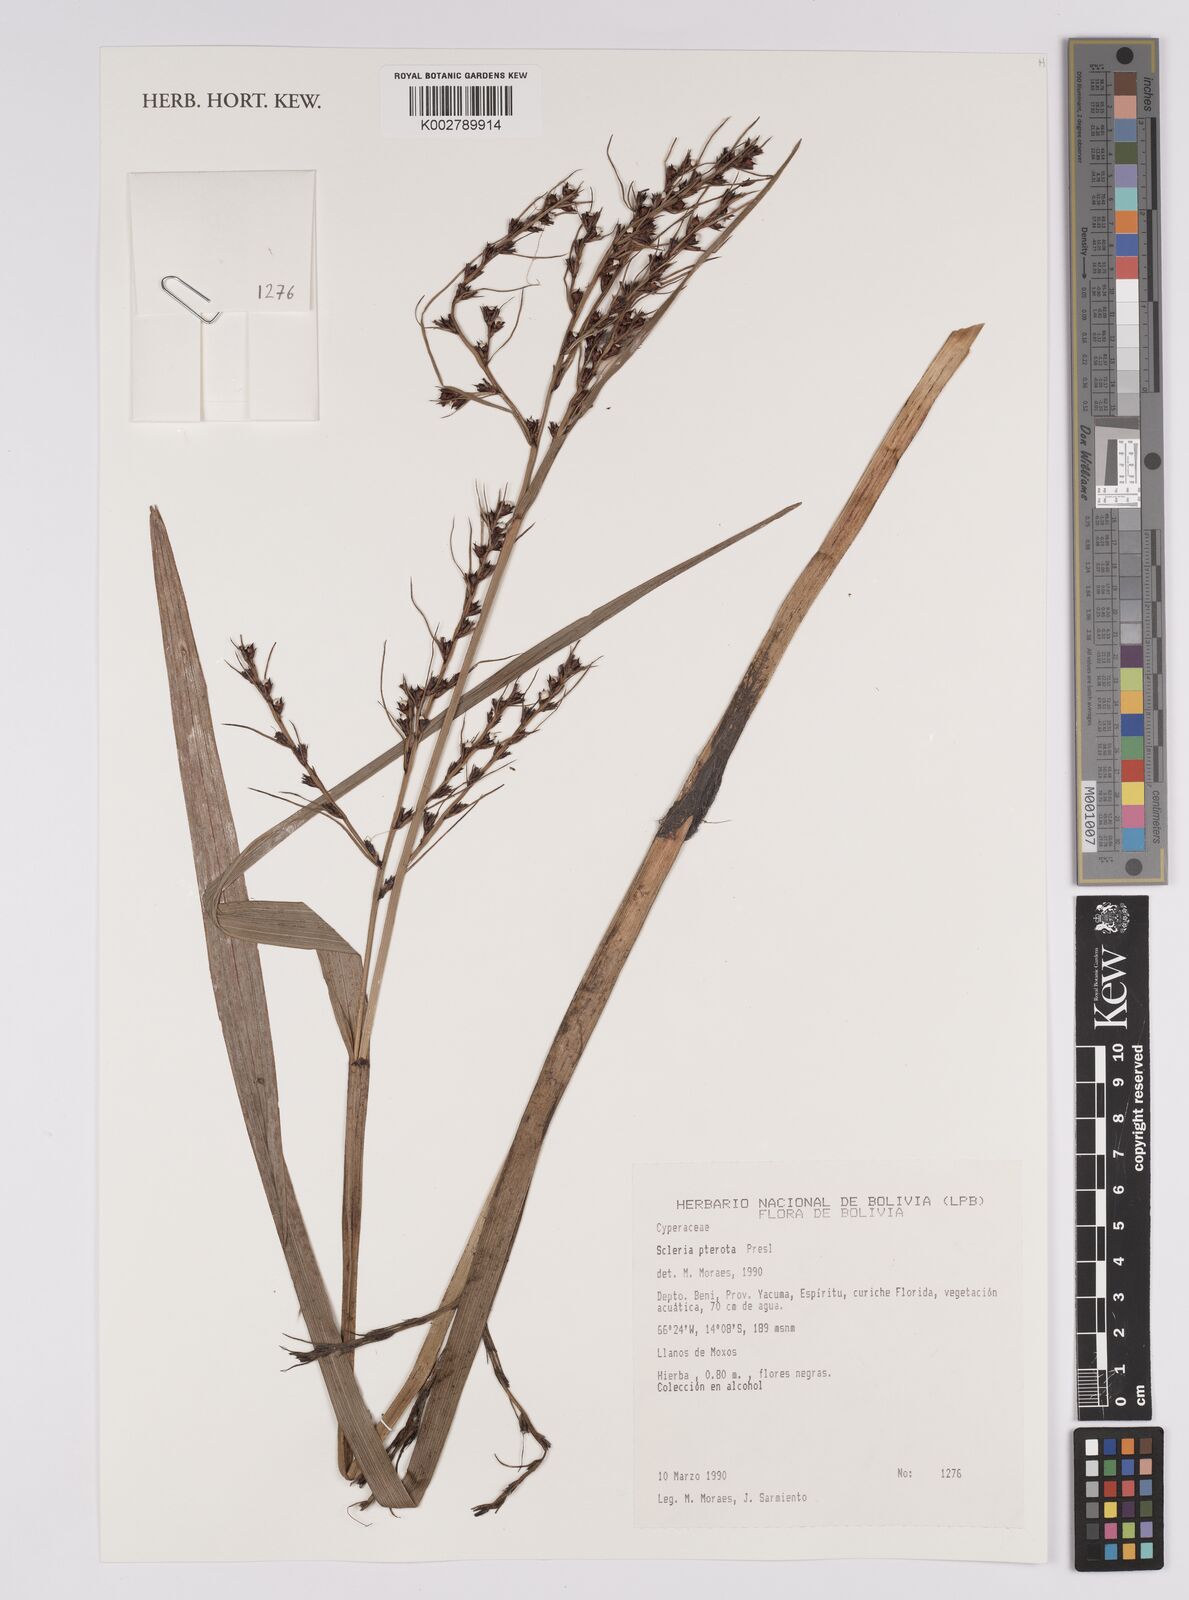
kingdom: Plantae
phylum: Tracheophyta
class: Liliopsida
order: Poales
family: Cyperaceae
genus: Scleria
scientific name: Scleria gaertneri
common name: Cortadera blanca
